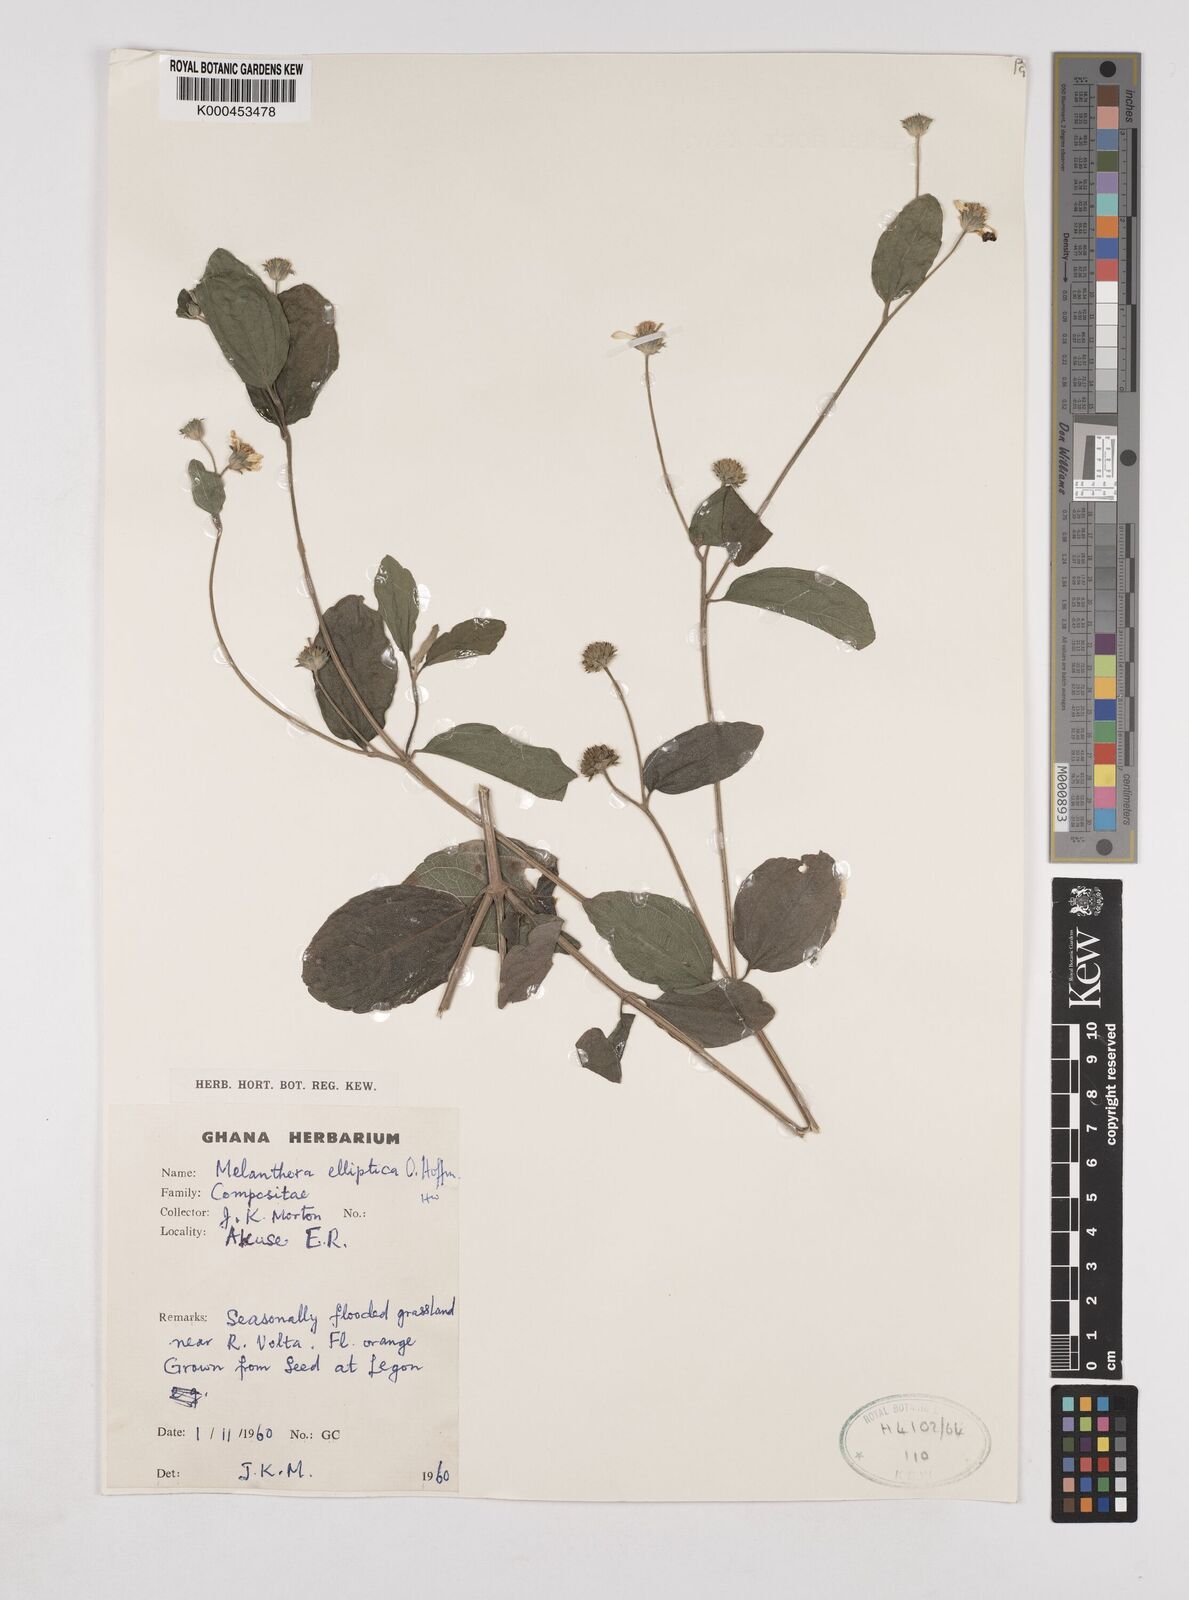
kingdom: Plantae
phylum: Tracheophyta
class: Magnoliopsida
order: Asterales
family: Asteraceae
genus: Lipotriche
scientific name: Lipotriche elliptica
